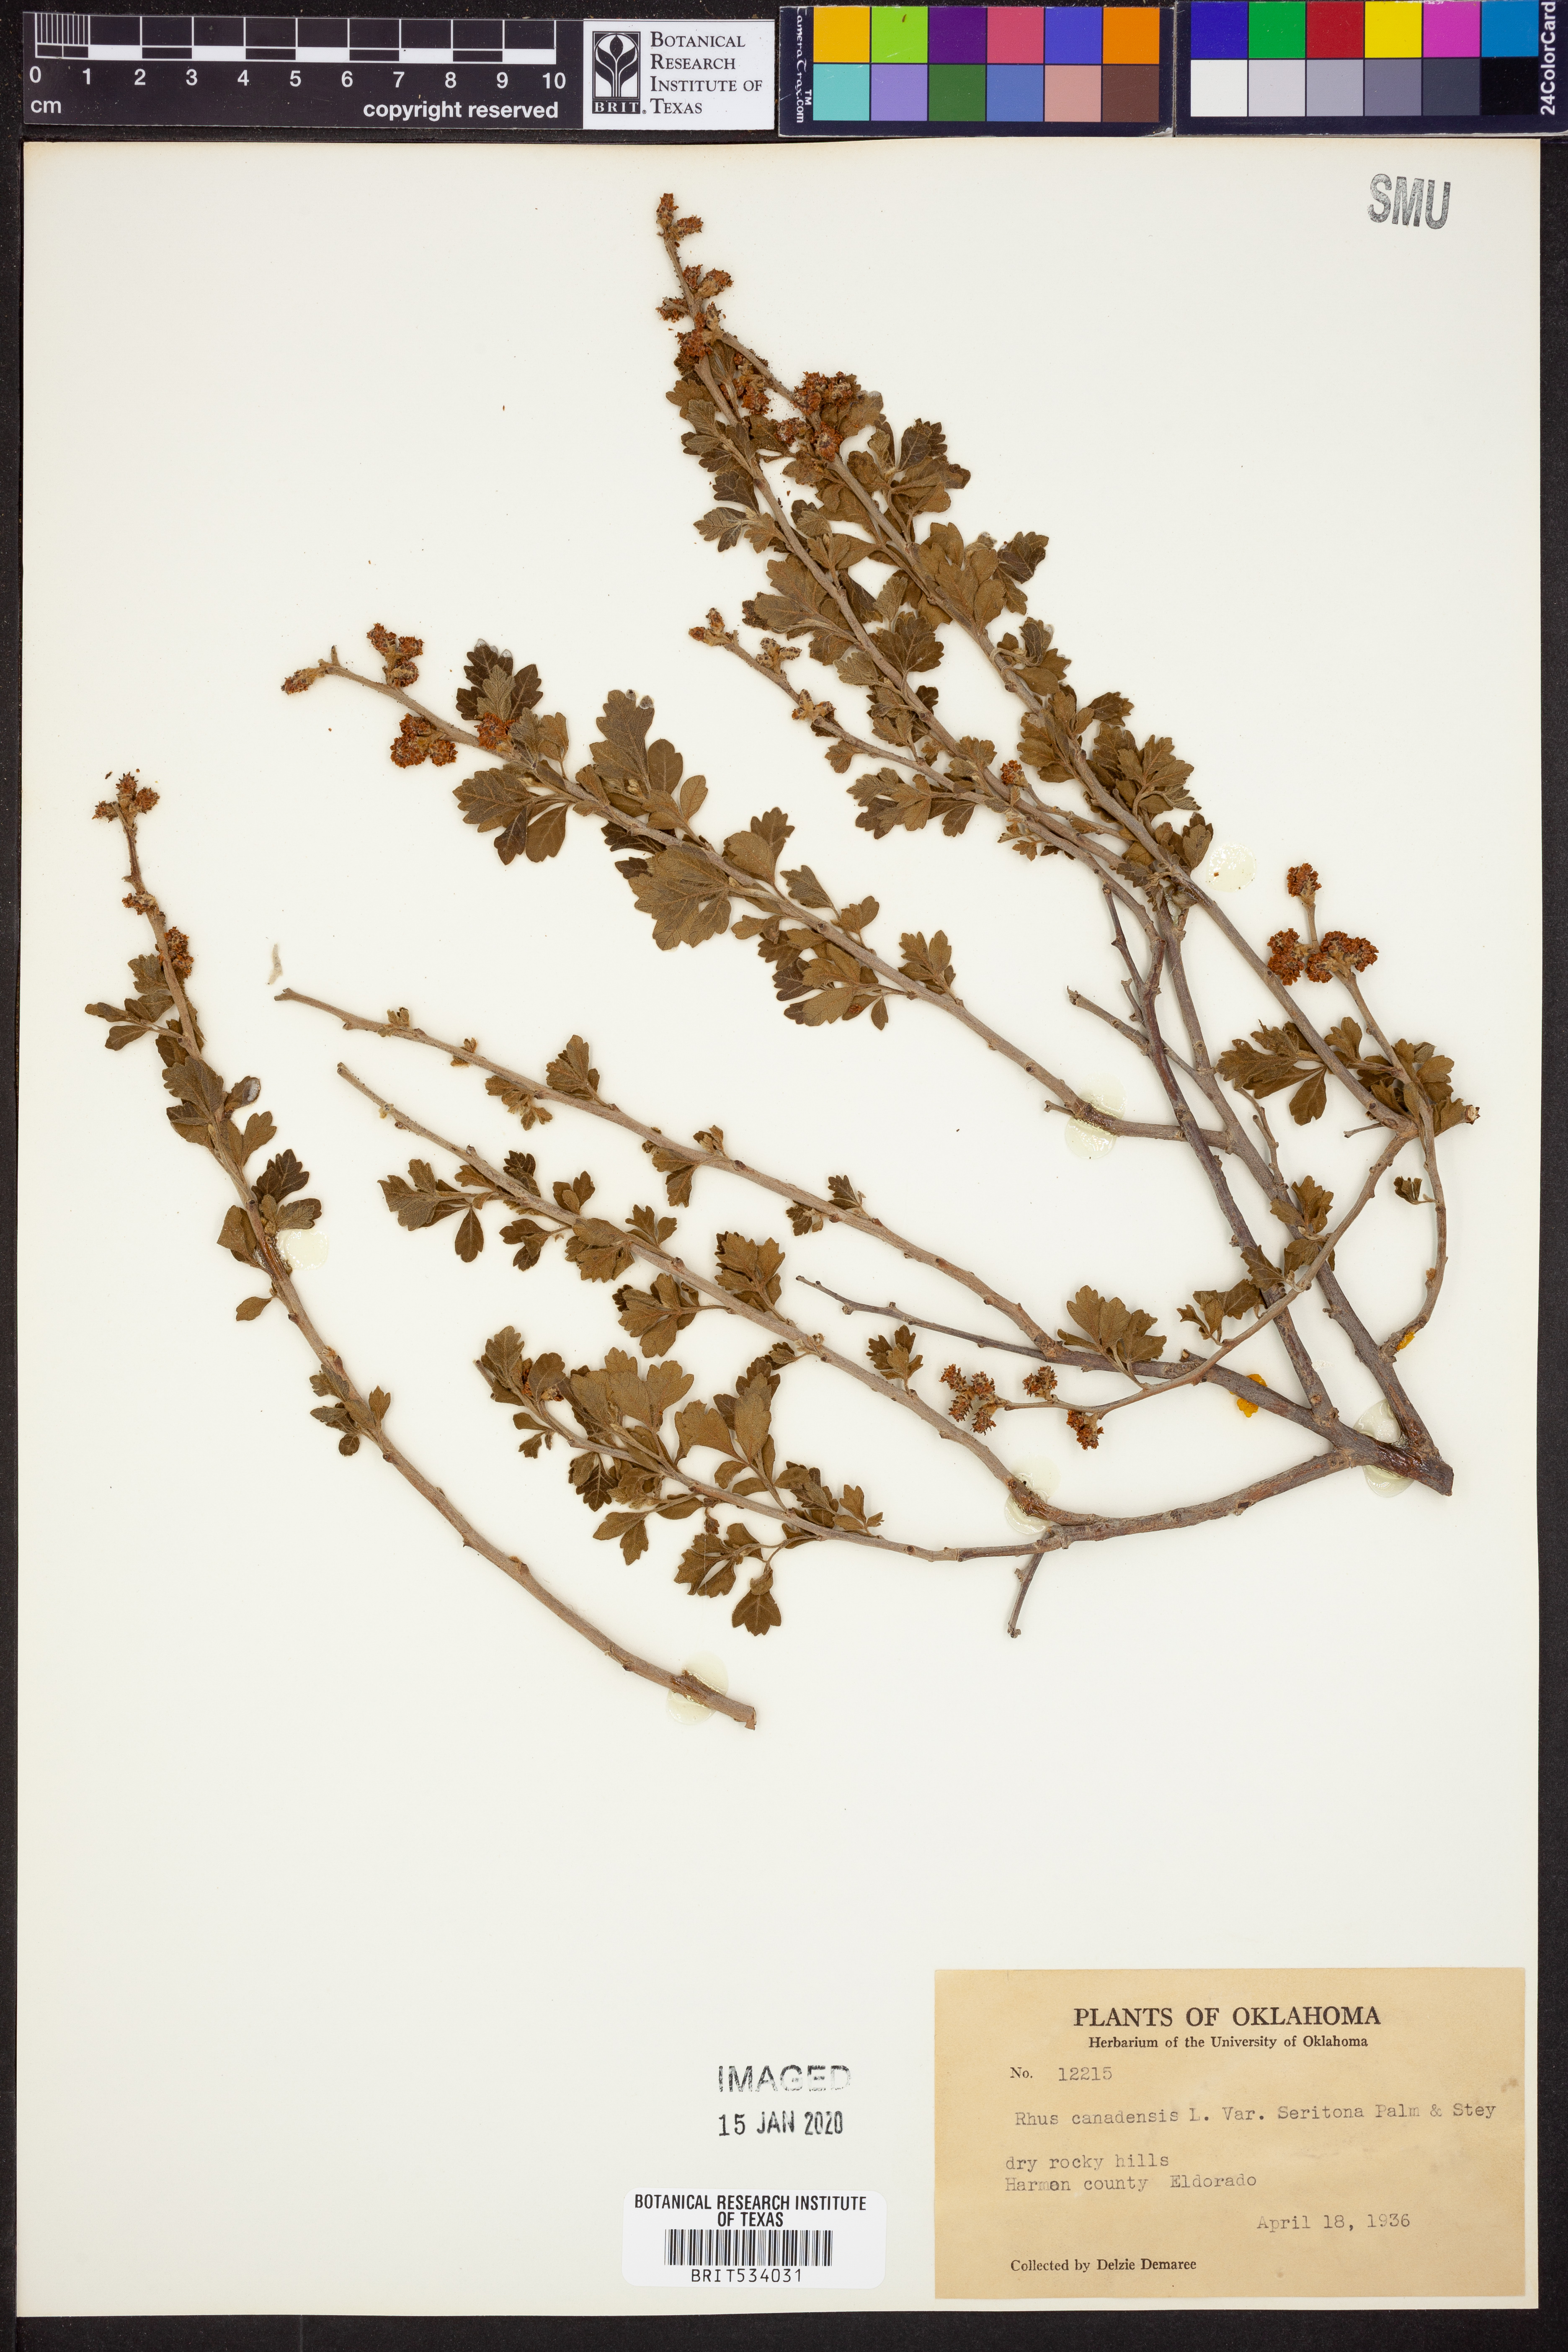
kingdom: Plantae
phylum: Tracheophyta
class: Magnoliopsida
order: Sapindales
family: Anacardiaceae
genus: Rhus
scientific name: Rhus aromatica
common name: Aromatic sumac
